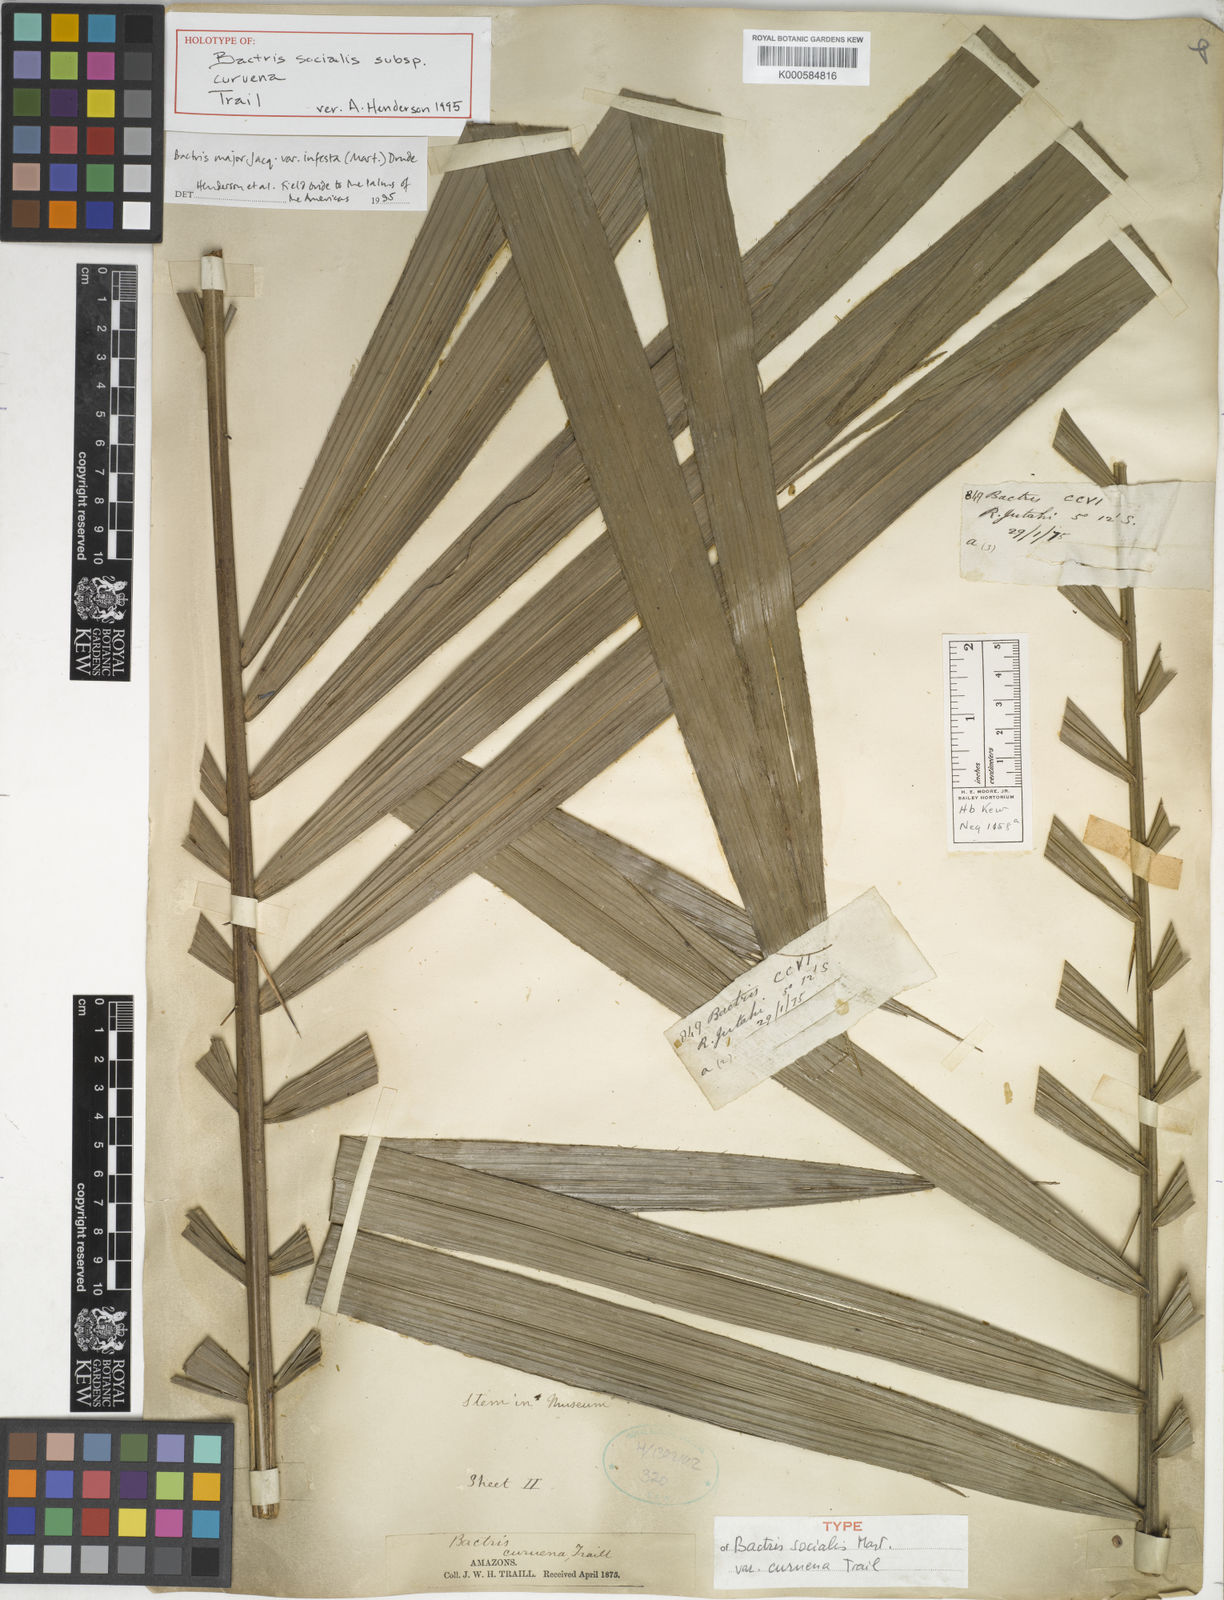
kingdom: Plantae
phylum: Tracheophyta
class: Liliopsida
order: Arecales
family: Arecaceae
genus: Bactris
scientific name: Bactris major
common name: Beach palm
